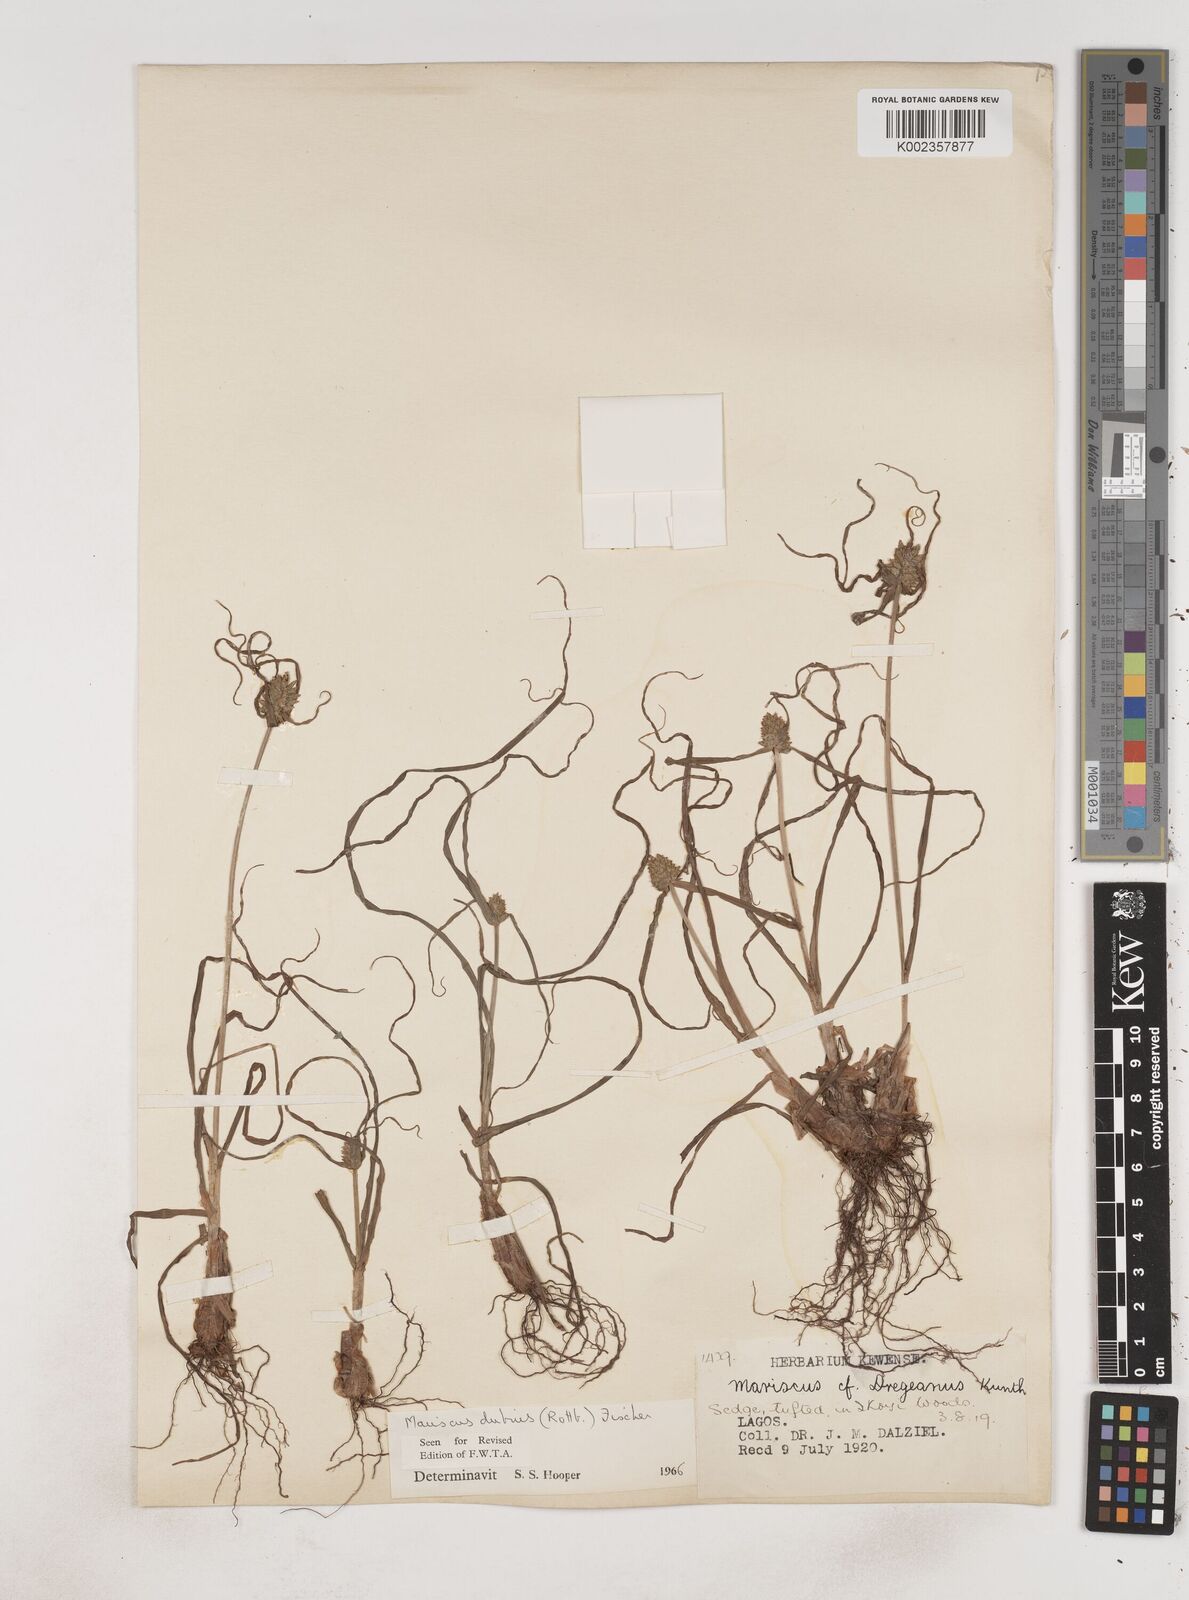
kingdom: Plantae
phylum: Tracheophyta
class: Liliopsida
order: Poales
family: Cyperaceae
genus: Cyperus
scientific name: Cyperus dubius
